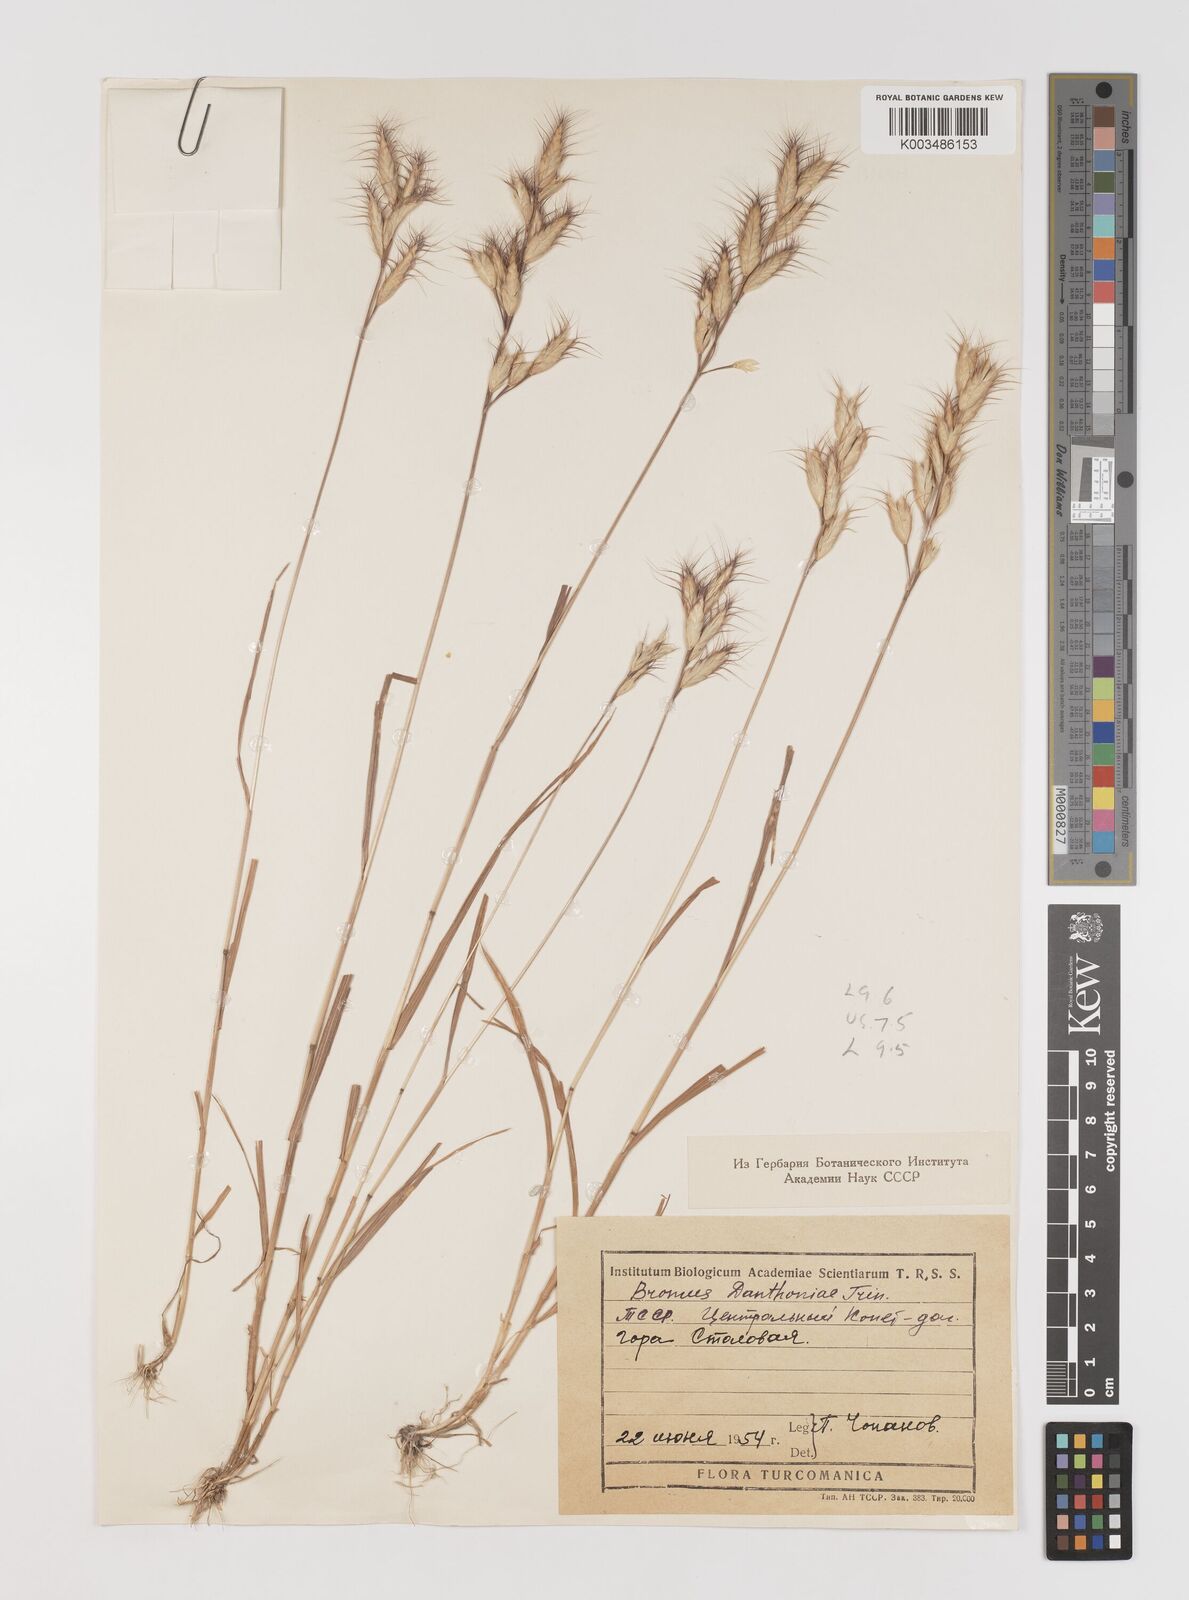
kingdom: Plantae
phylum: Tracheophyta
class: Liliopsida
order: Poales
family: Poaceae
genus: Bromus
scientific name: Bromus danthoniae
